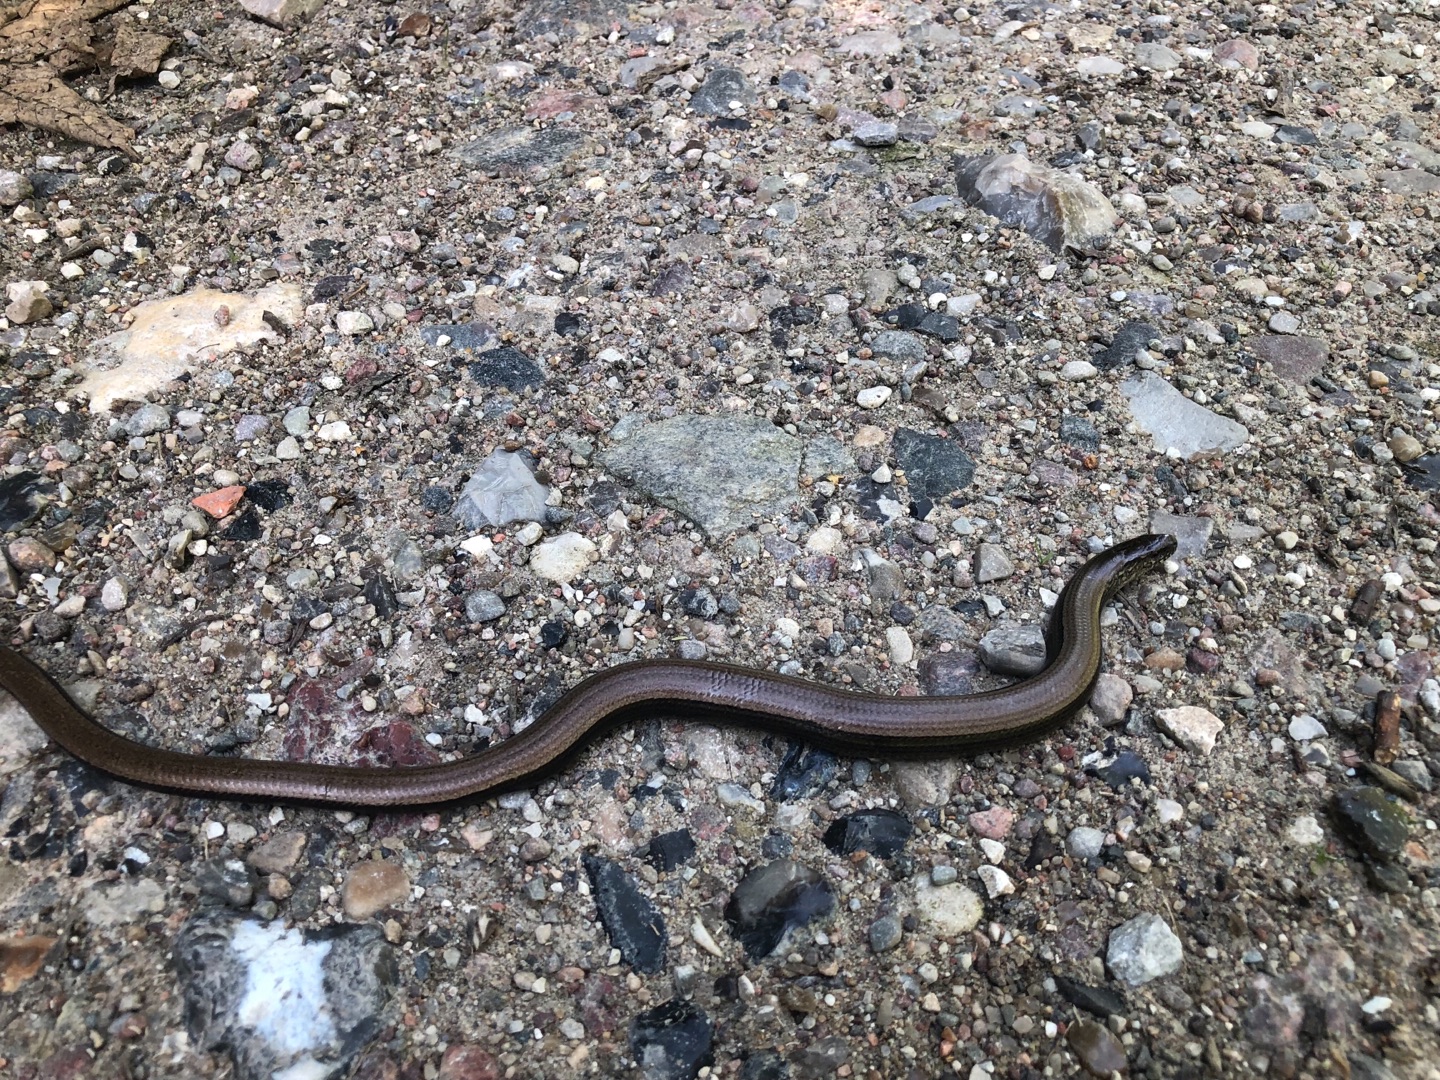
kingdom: Animalia
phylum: Chordata
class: Squamata
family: Anguidae
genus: Anguis
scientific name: Anguis fragilis
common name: Stålorm
